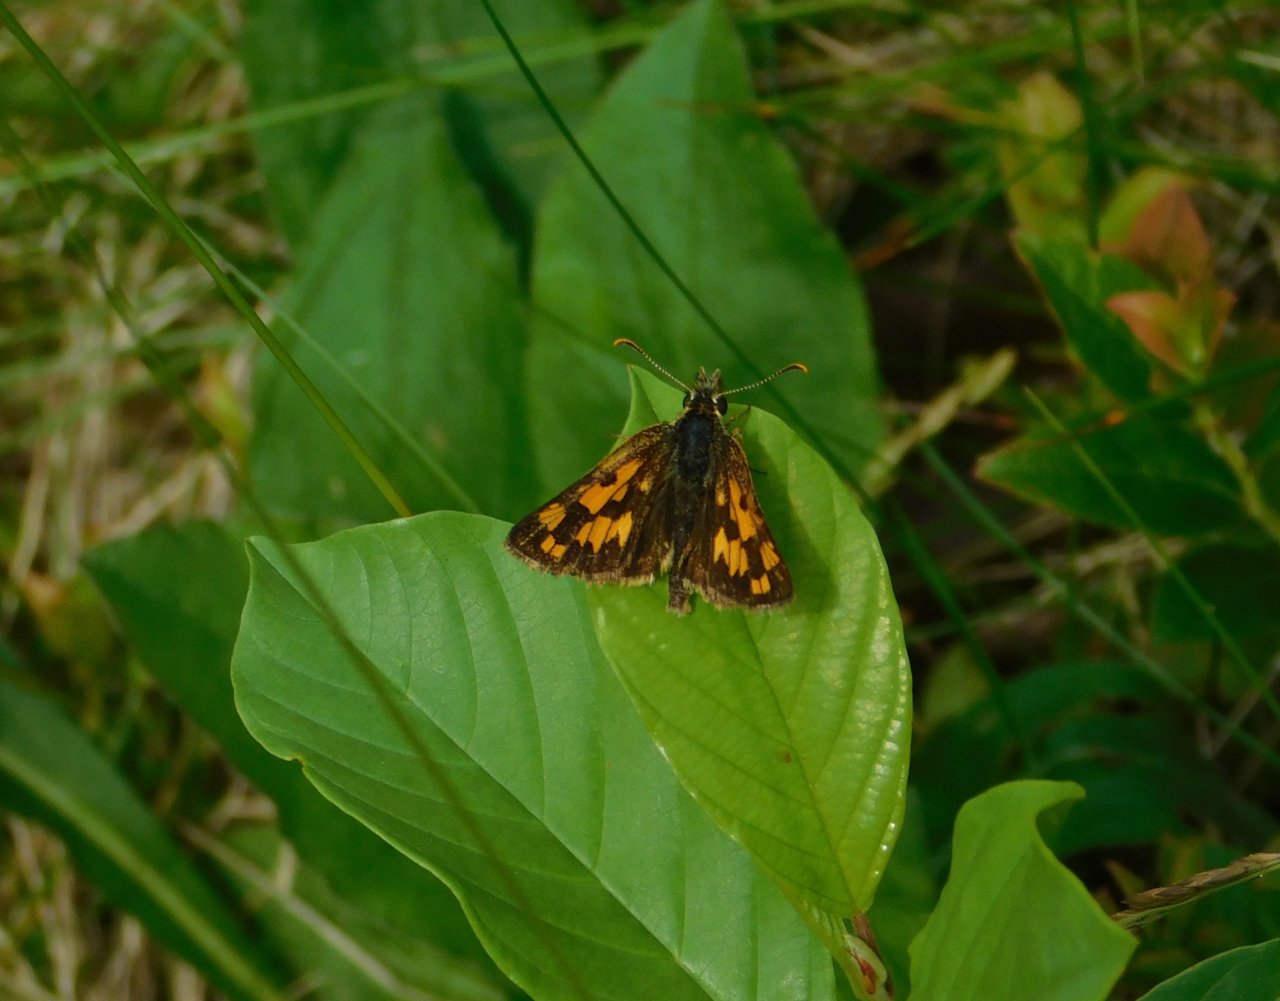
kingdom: Animalia
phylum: Arthropoda
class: Insecta
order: Lepidoptera
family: Hesperiidae
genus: Carterocephalus
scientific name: Carterocephalus palaemon
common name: Chequered Skipper
